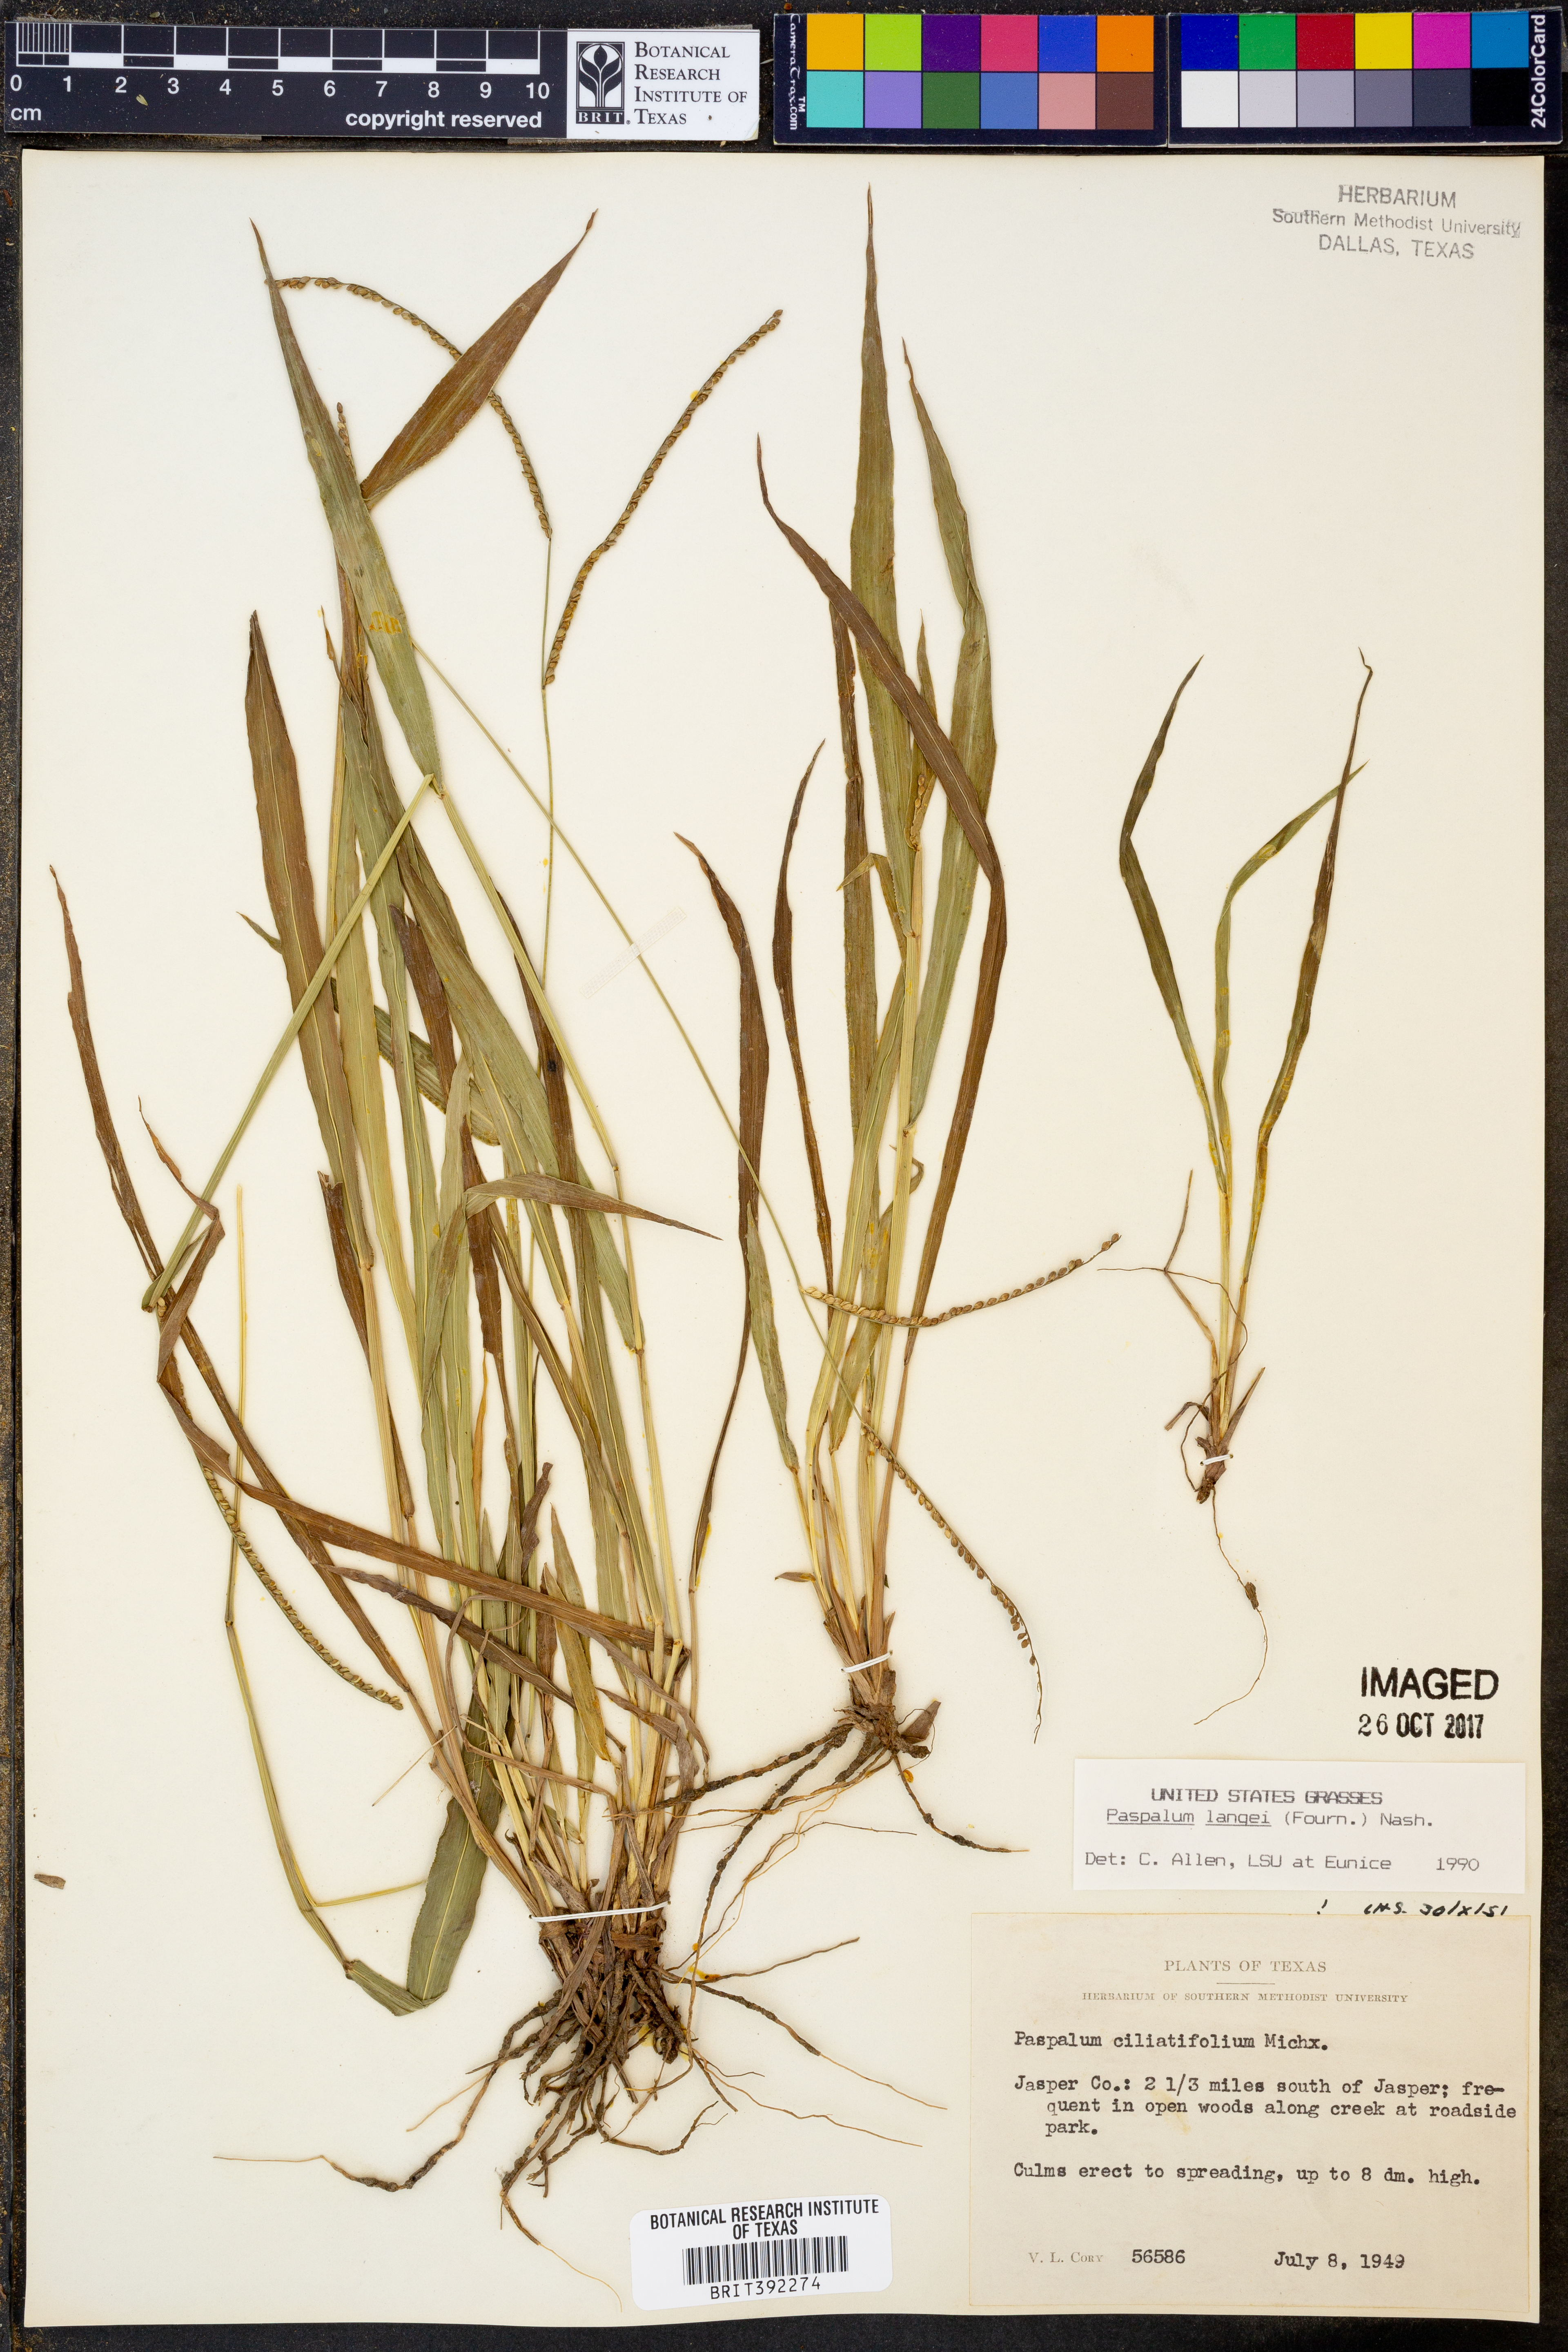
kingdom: Plantae
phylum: Tracheophyta
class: Liliopsida
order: Poales
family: Poaceae
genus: Paspalum
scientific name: Paspalum langei
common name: Rusty-seed paspalum
